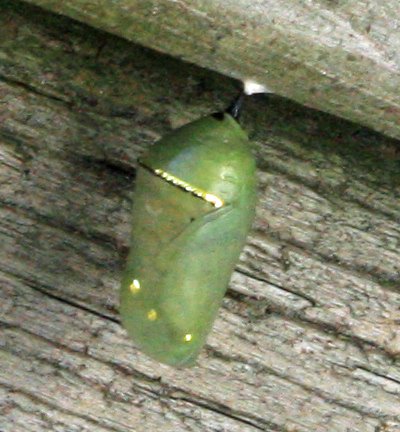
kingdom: Animalia
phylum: Arthropoda
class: Insecta
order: Lepidoptera
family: Nymphalidae
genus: Danaus
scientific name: Danaus plexippus
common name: Monarch
